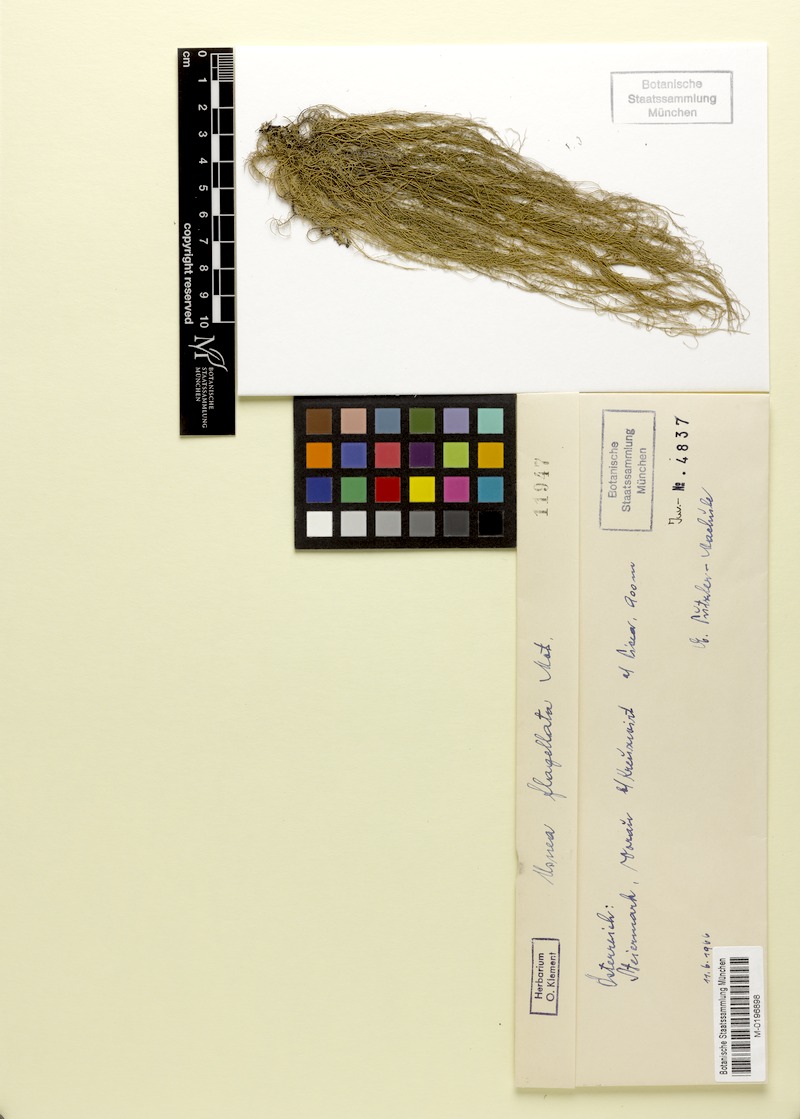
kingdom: Fungi
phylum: Ascomycota
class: Lecanoromycetes
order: Lecanorales
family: Parmeliaceae
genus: Usnea
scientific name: Usnea dasopoga
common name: Fishbone beard lichen
